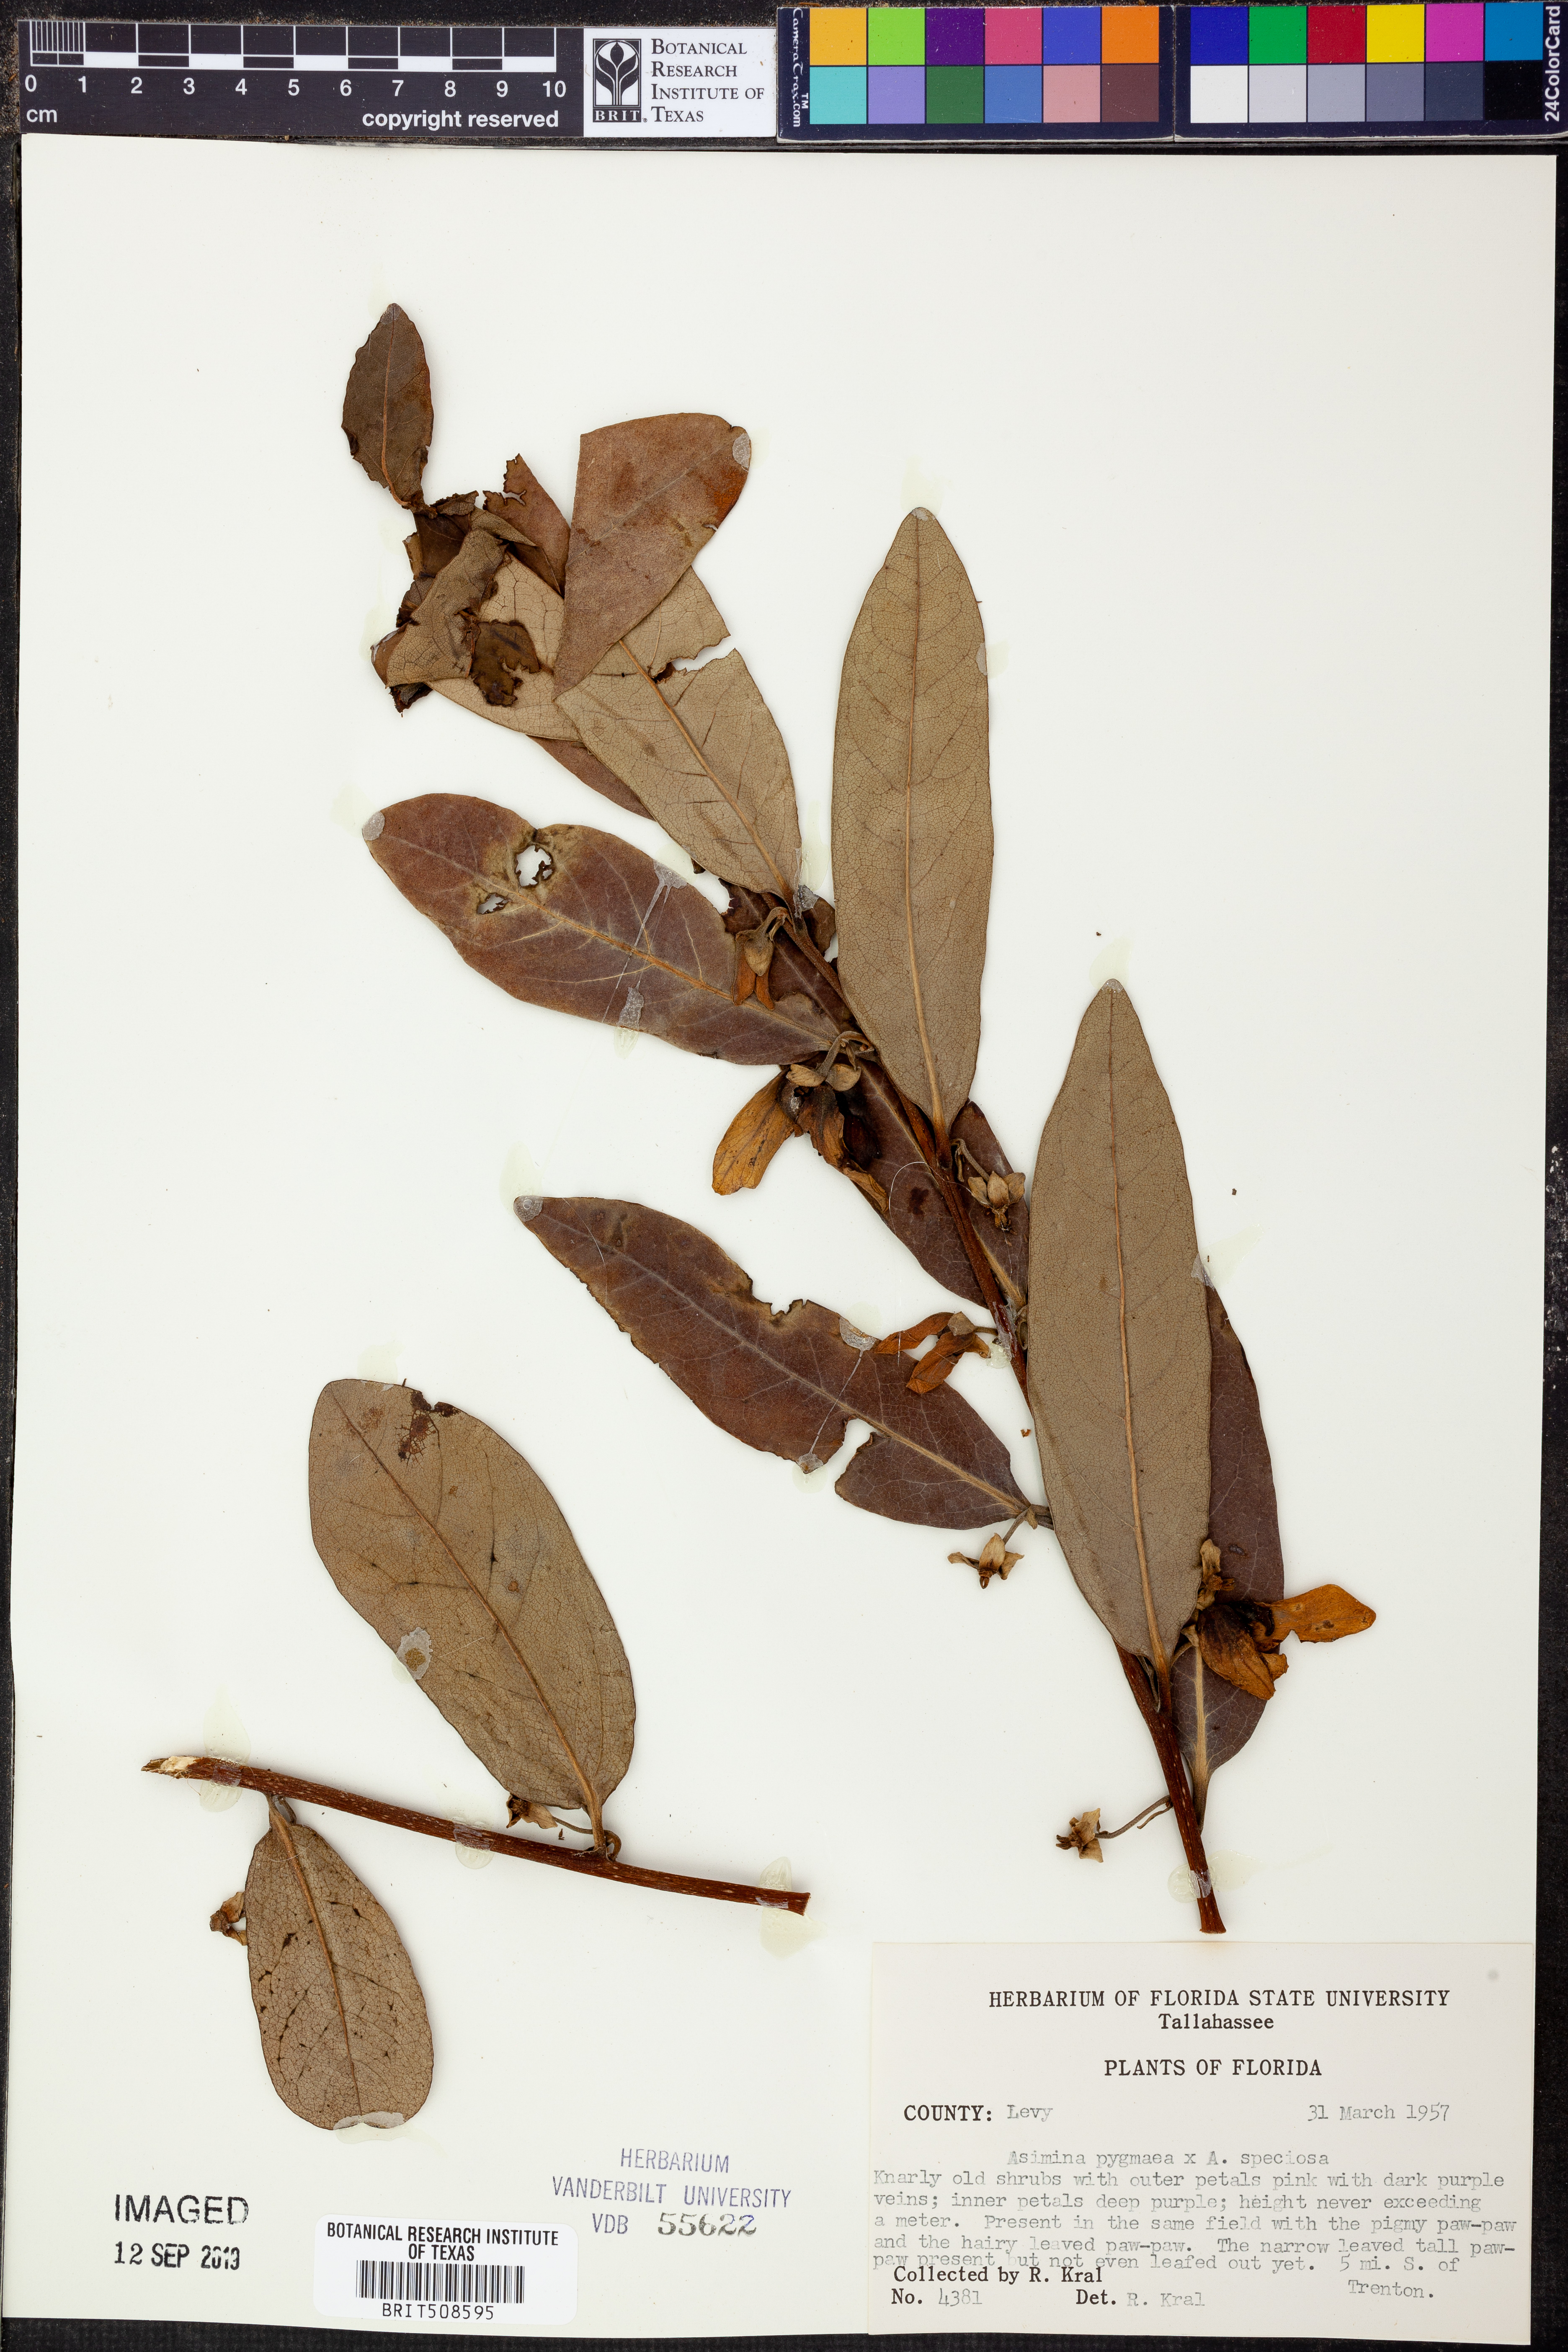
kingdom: Plantae
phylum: Tracheophyta
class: Magnoliopsida
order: Magnoliales
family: Annonaceae
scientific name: Annonaceae
